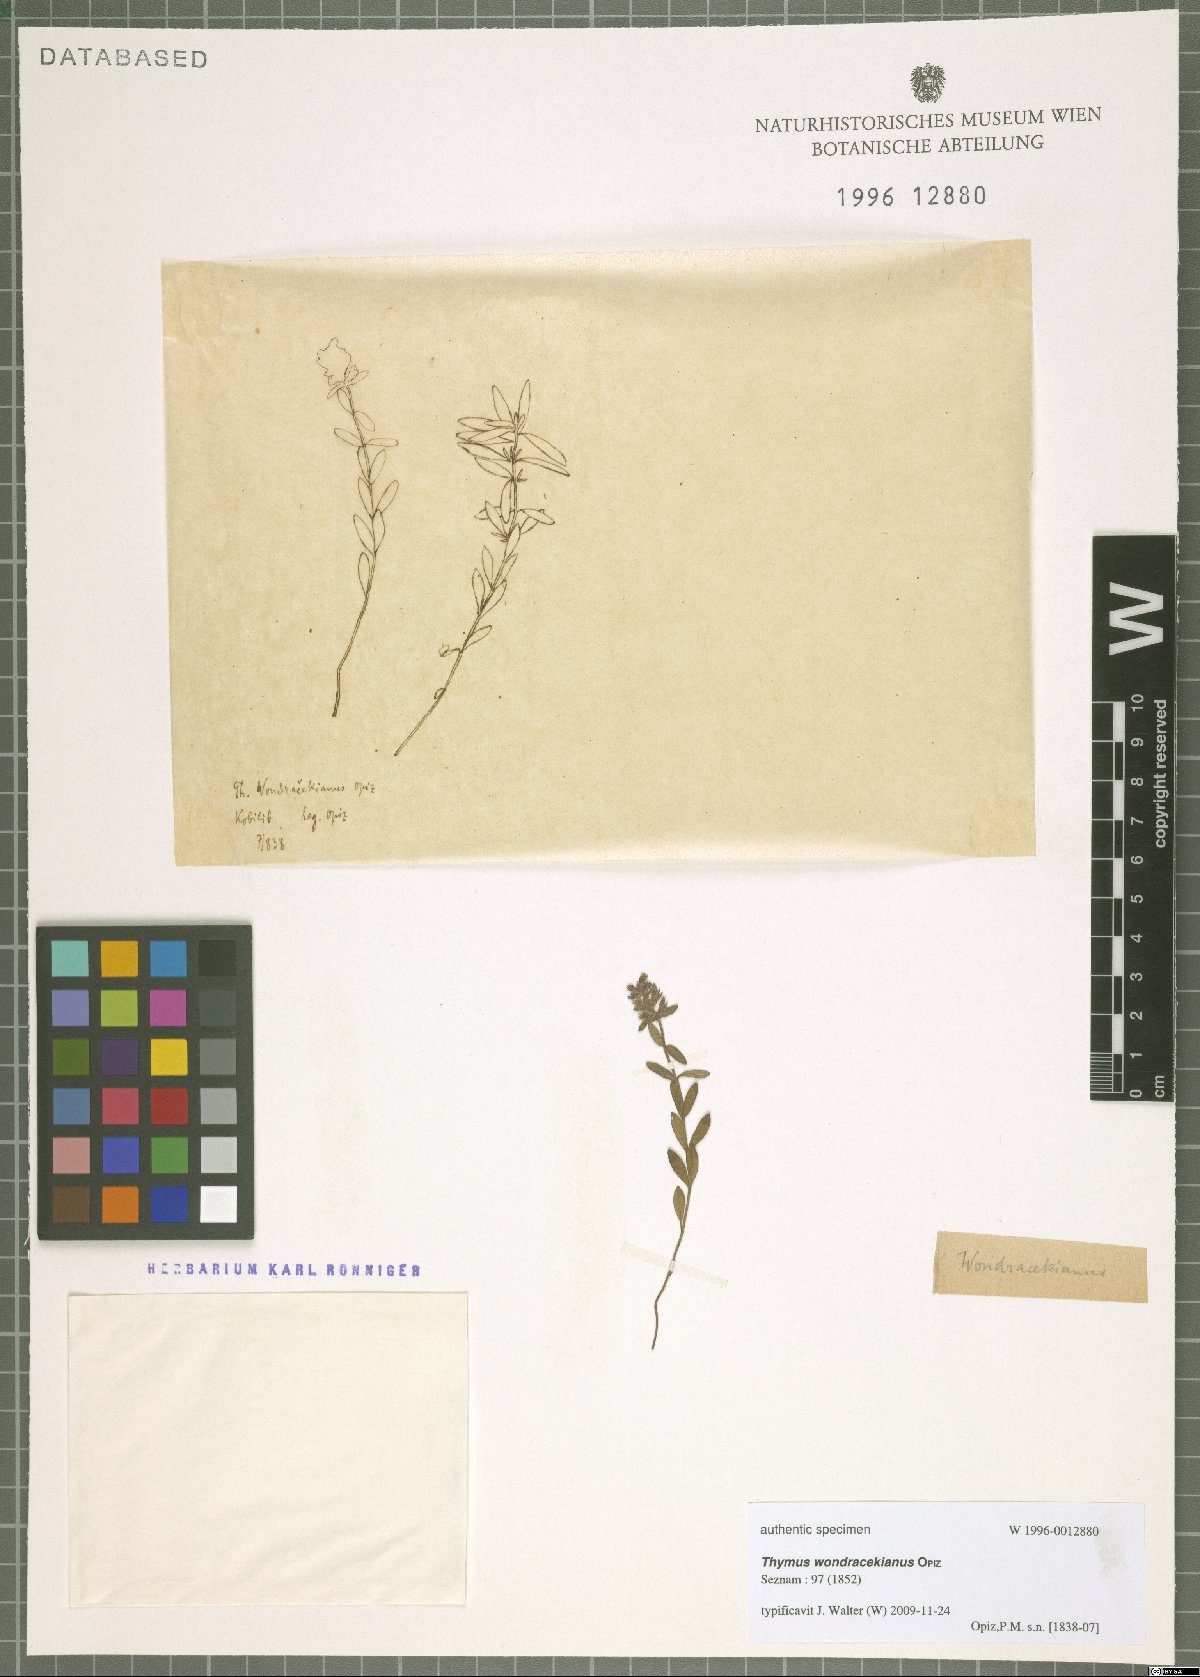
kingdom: Plantae
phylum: Tracheophyta
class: Magnoliopsida
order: Lamiales
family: Lamiaceae
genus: Thymus
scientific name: Thymus serpyllum
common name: Breckland thyme
